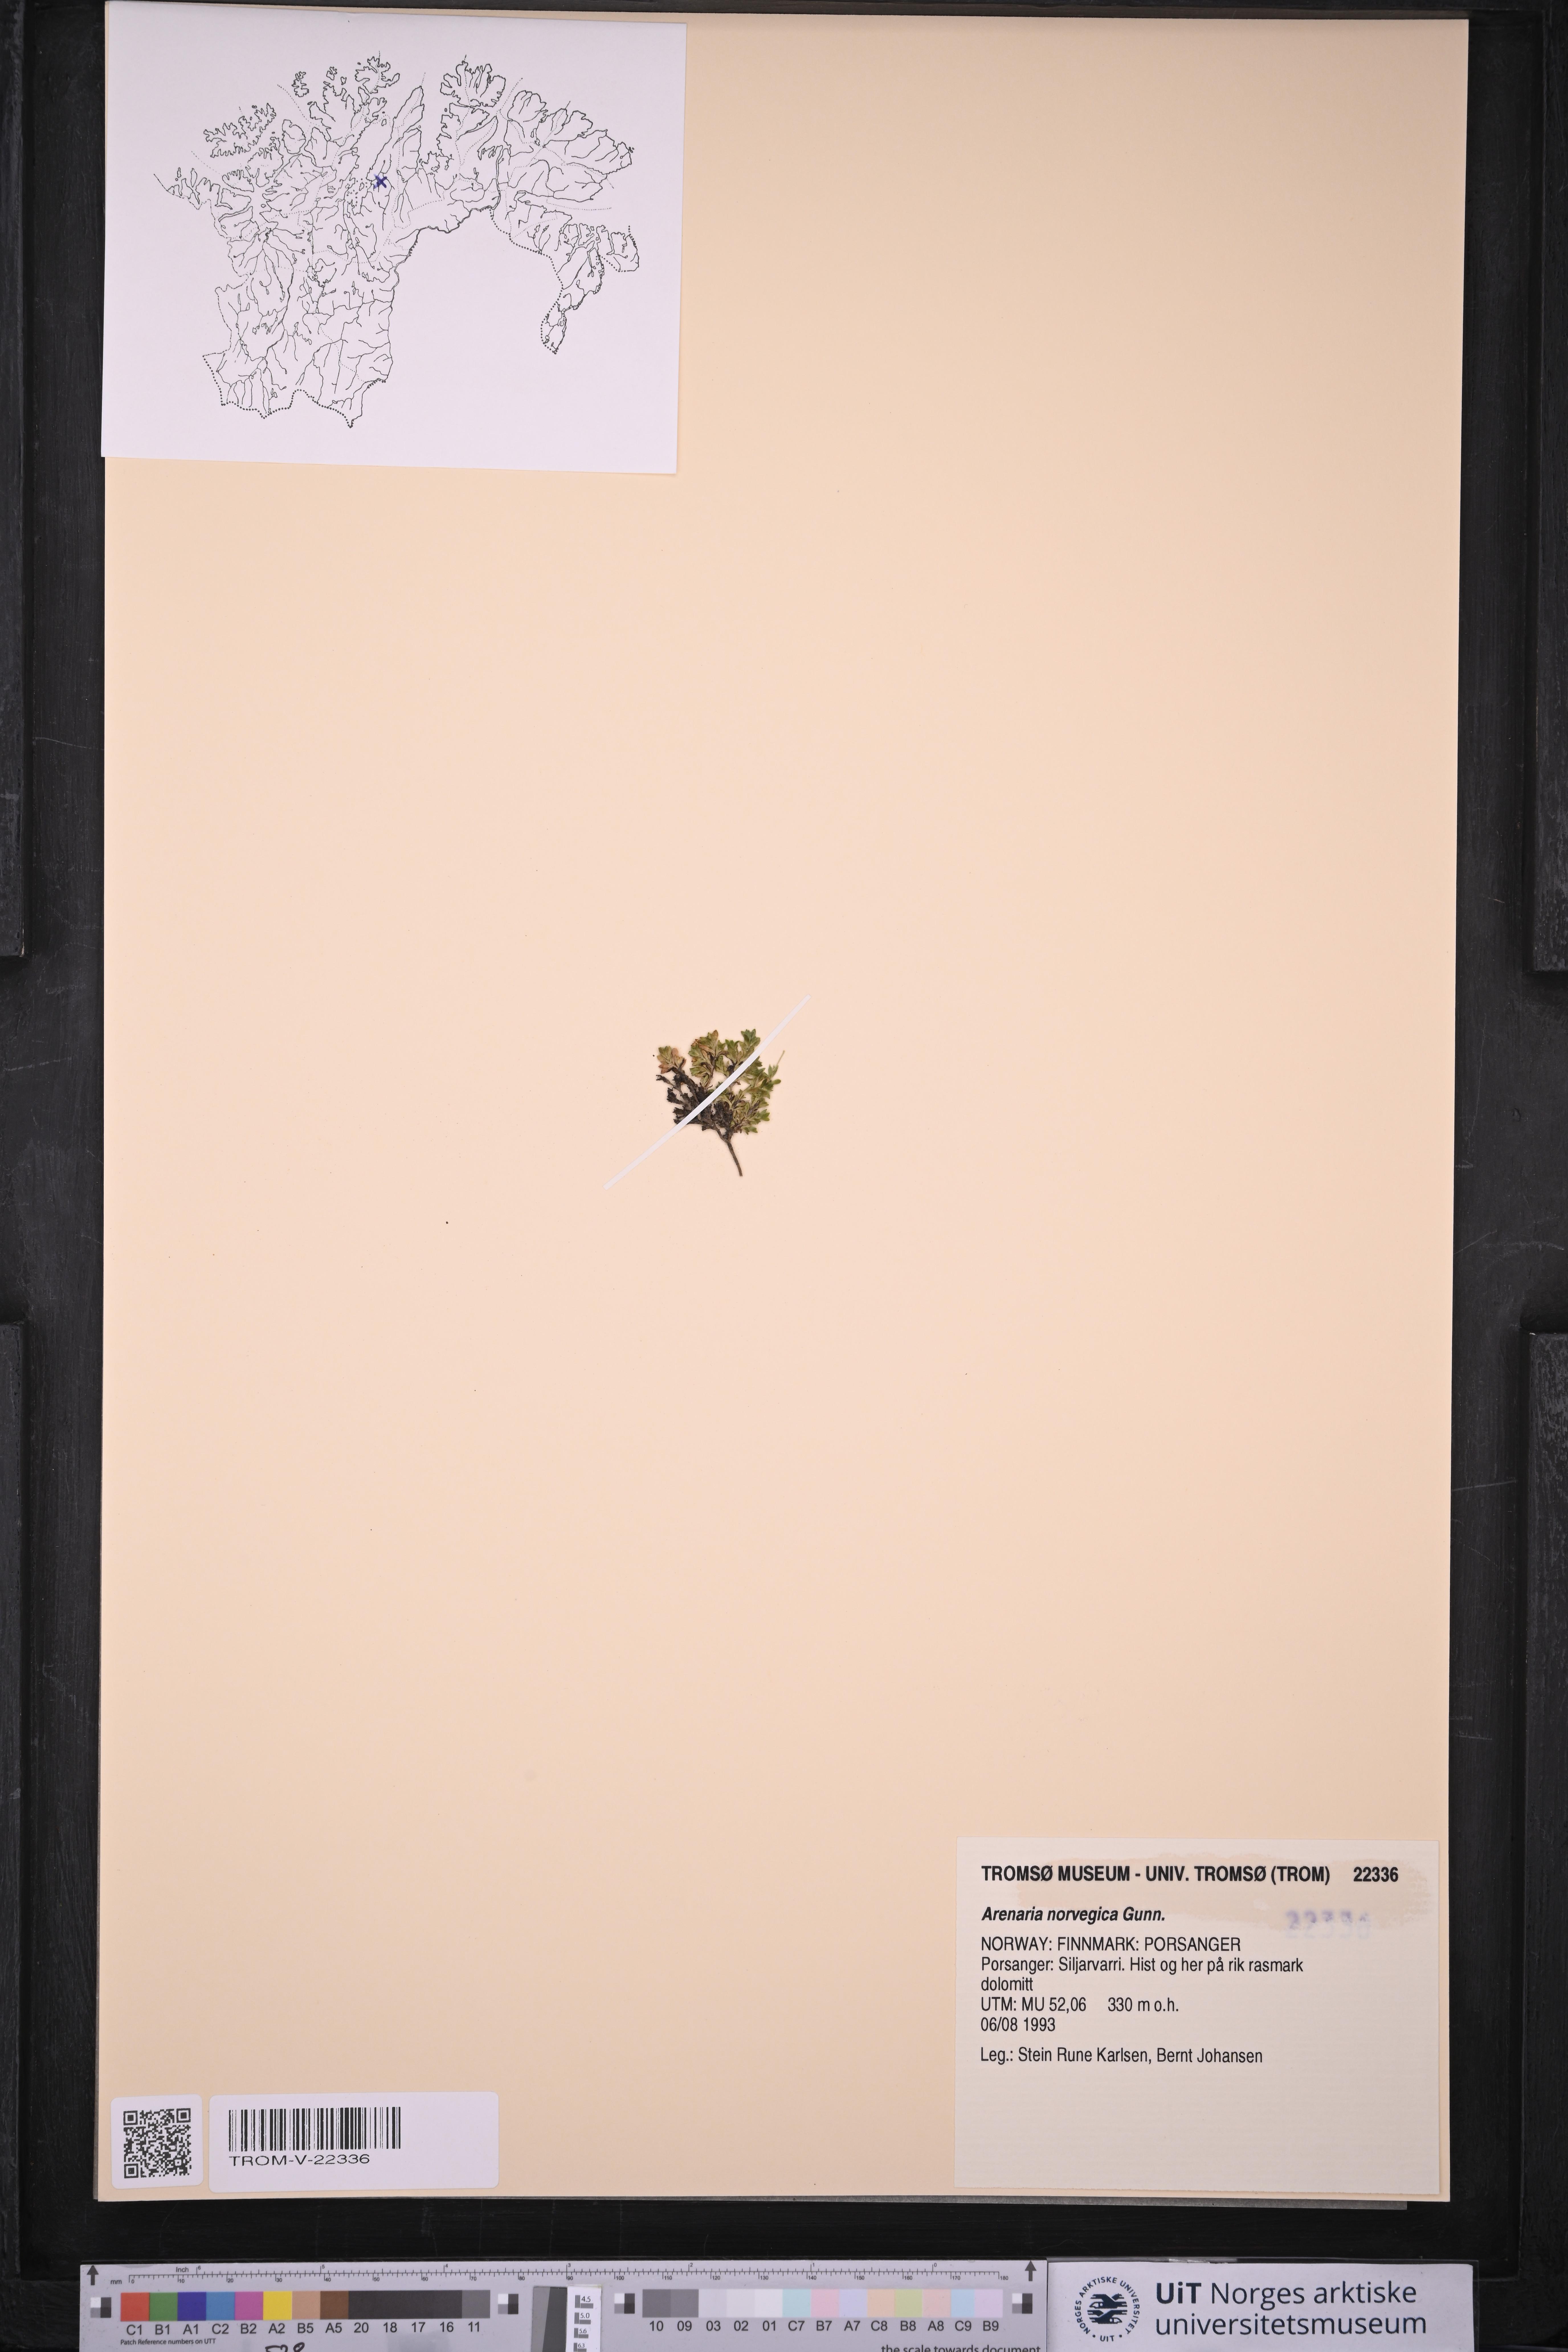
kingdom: Plantae
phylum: Tracheophyta
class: Magnoliopsida
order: Caryophyllales
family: Caryophyllaceae
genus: Arenaria
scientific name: Arenaria norvegica
